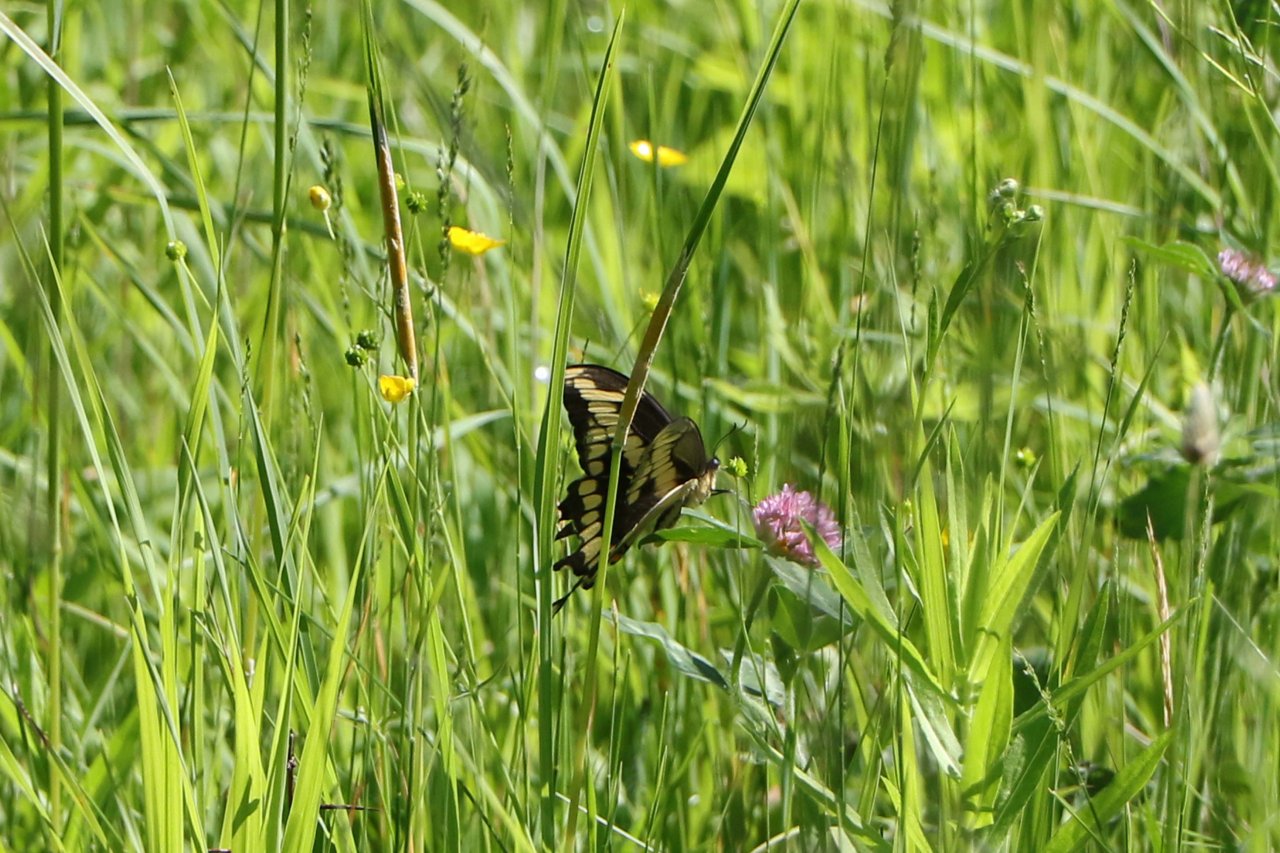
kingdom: Animalia
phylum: Arthropoda
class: Insecta
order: Lepidoptera
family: Papilionidae
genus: Papilio
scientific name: Papilio cresphontes
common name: Eastern Giant Swallowtail
